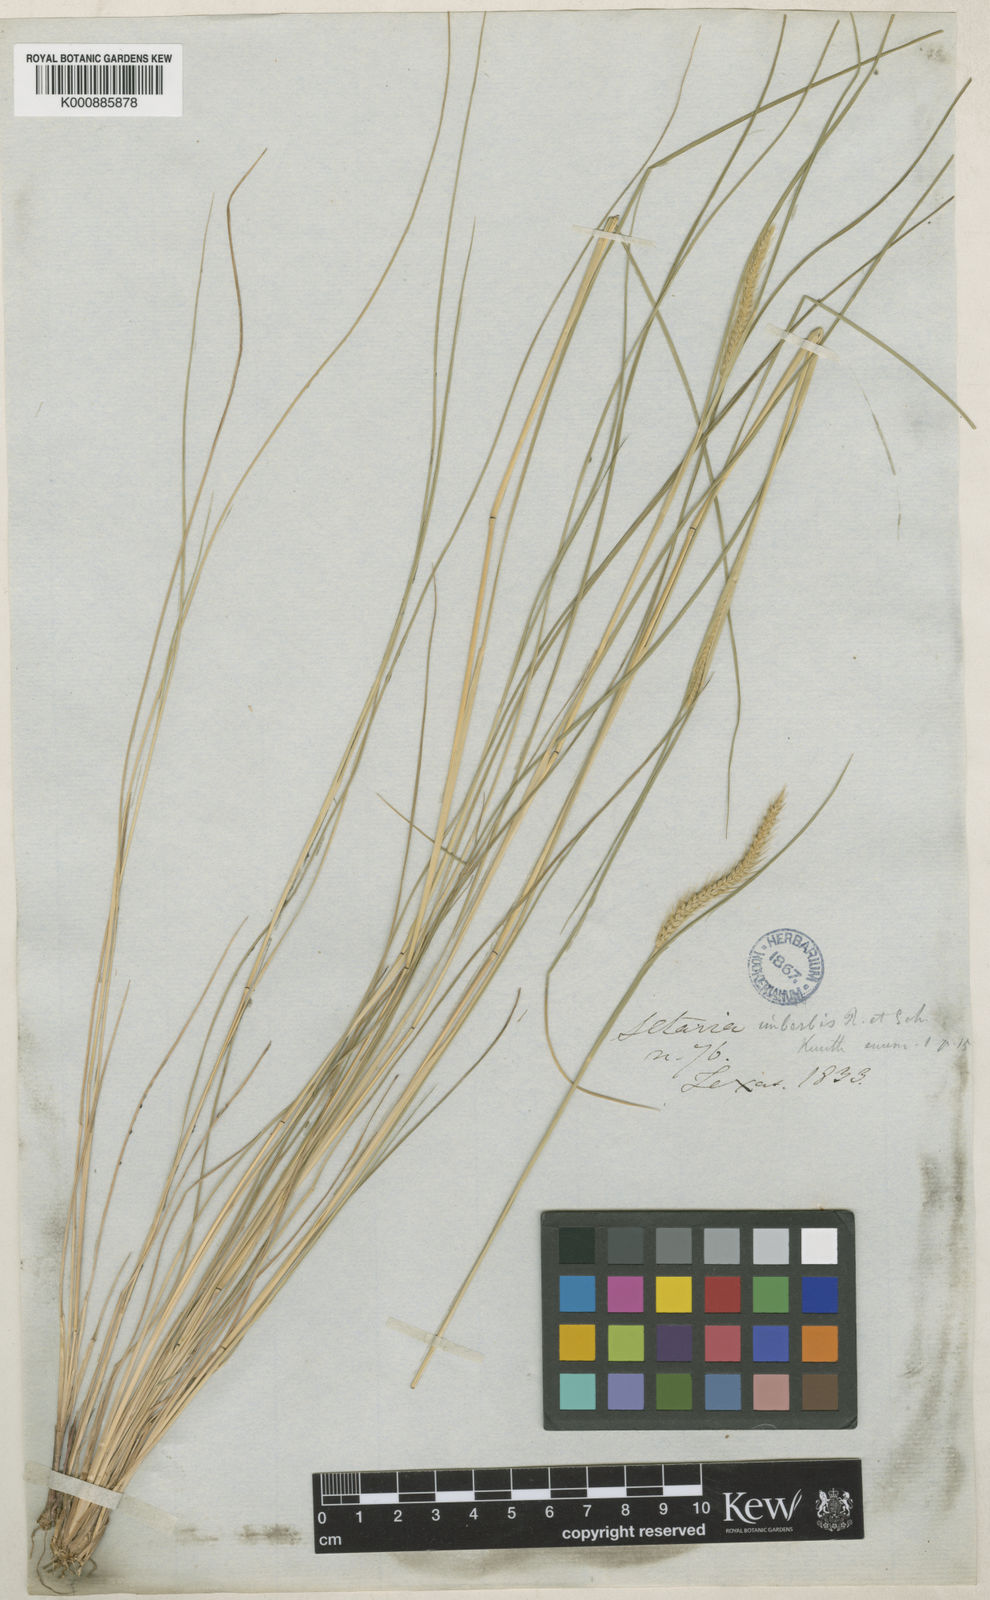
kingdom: Plantae
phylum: Tracheophyta
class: Liliopsida
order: Poales
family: Poaceae
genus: Setaria
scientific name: Setaria
